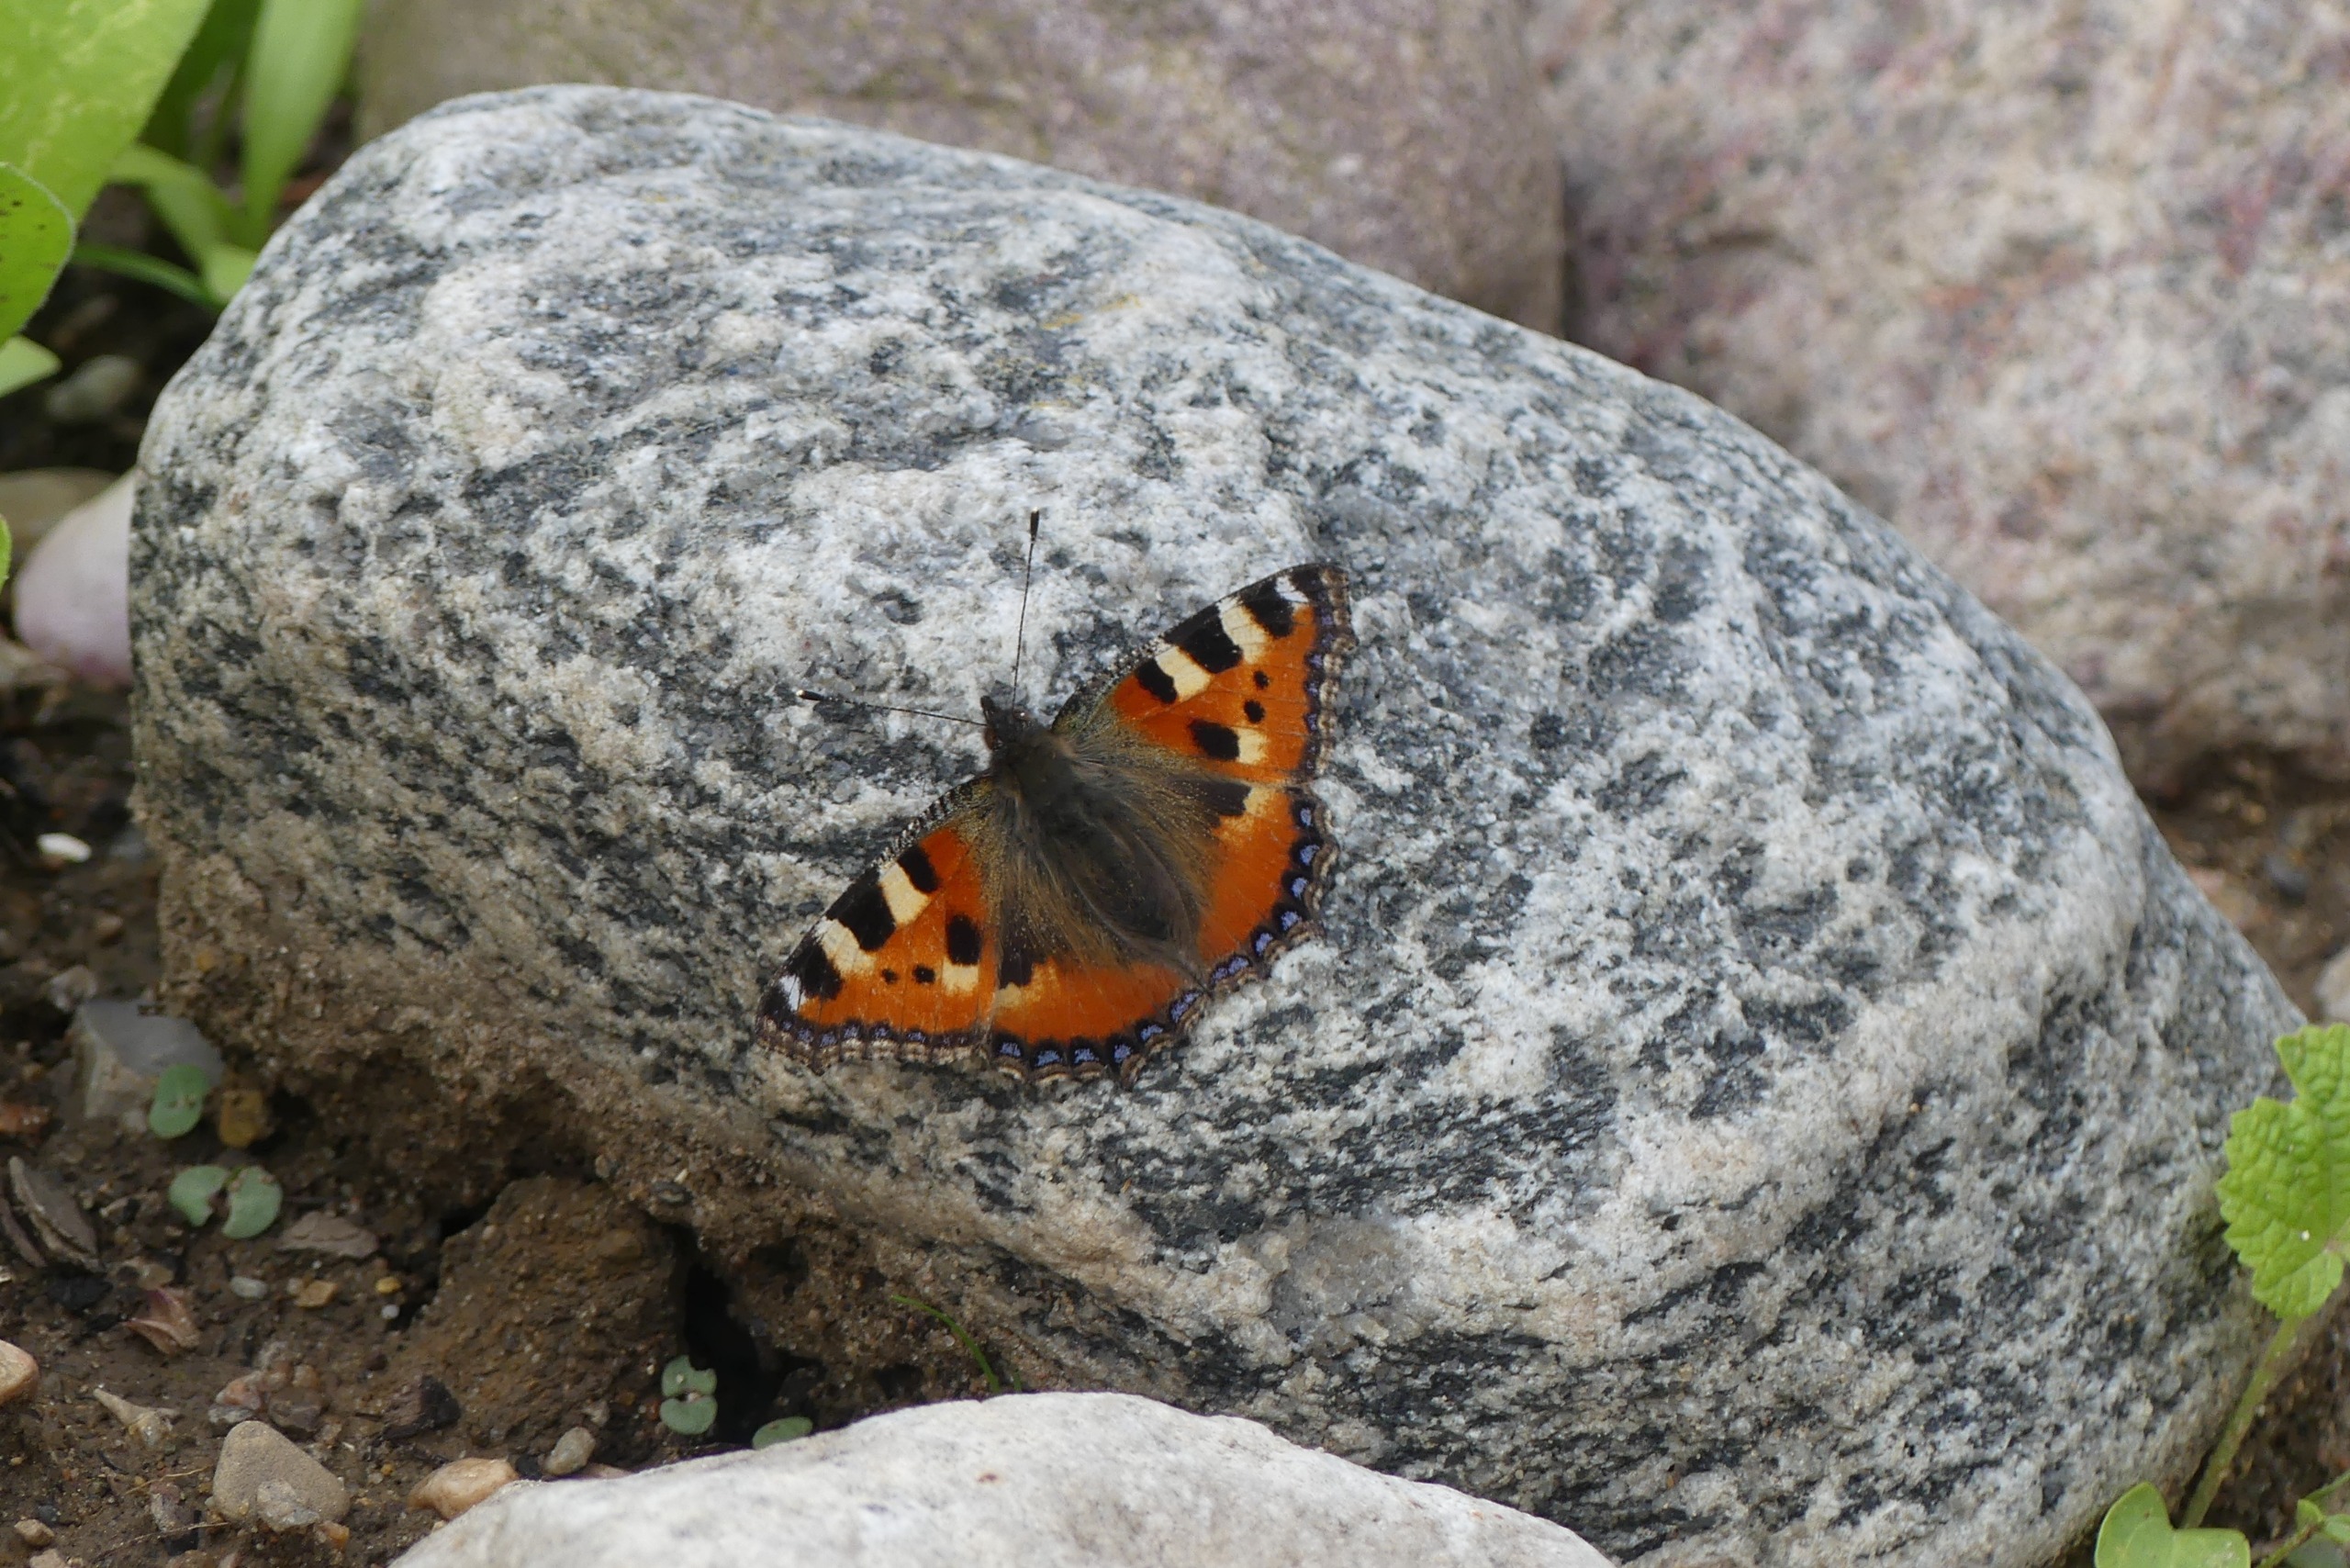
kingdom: Animalia
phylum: Arthropoda
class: Insecta
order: Lepidoptera
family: Nymphalidae
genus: Aglais
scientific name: Aglais urticae
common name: Nældens takvinge
